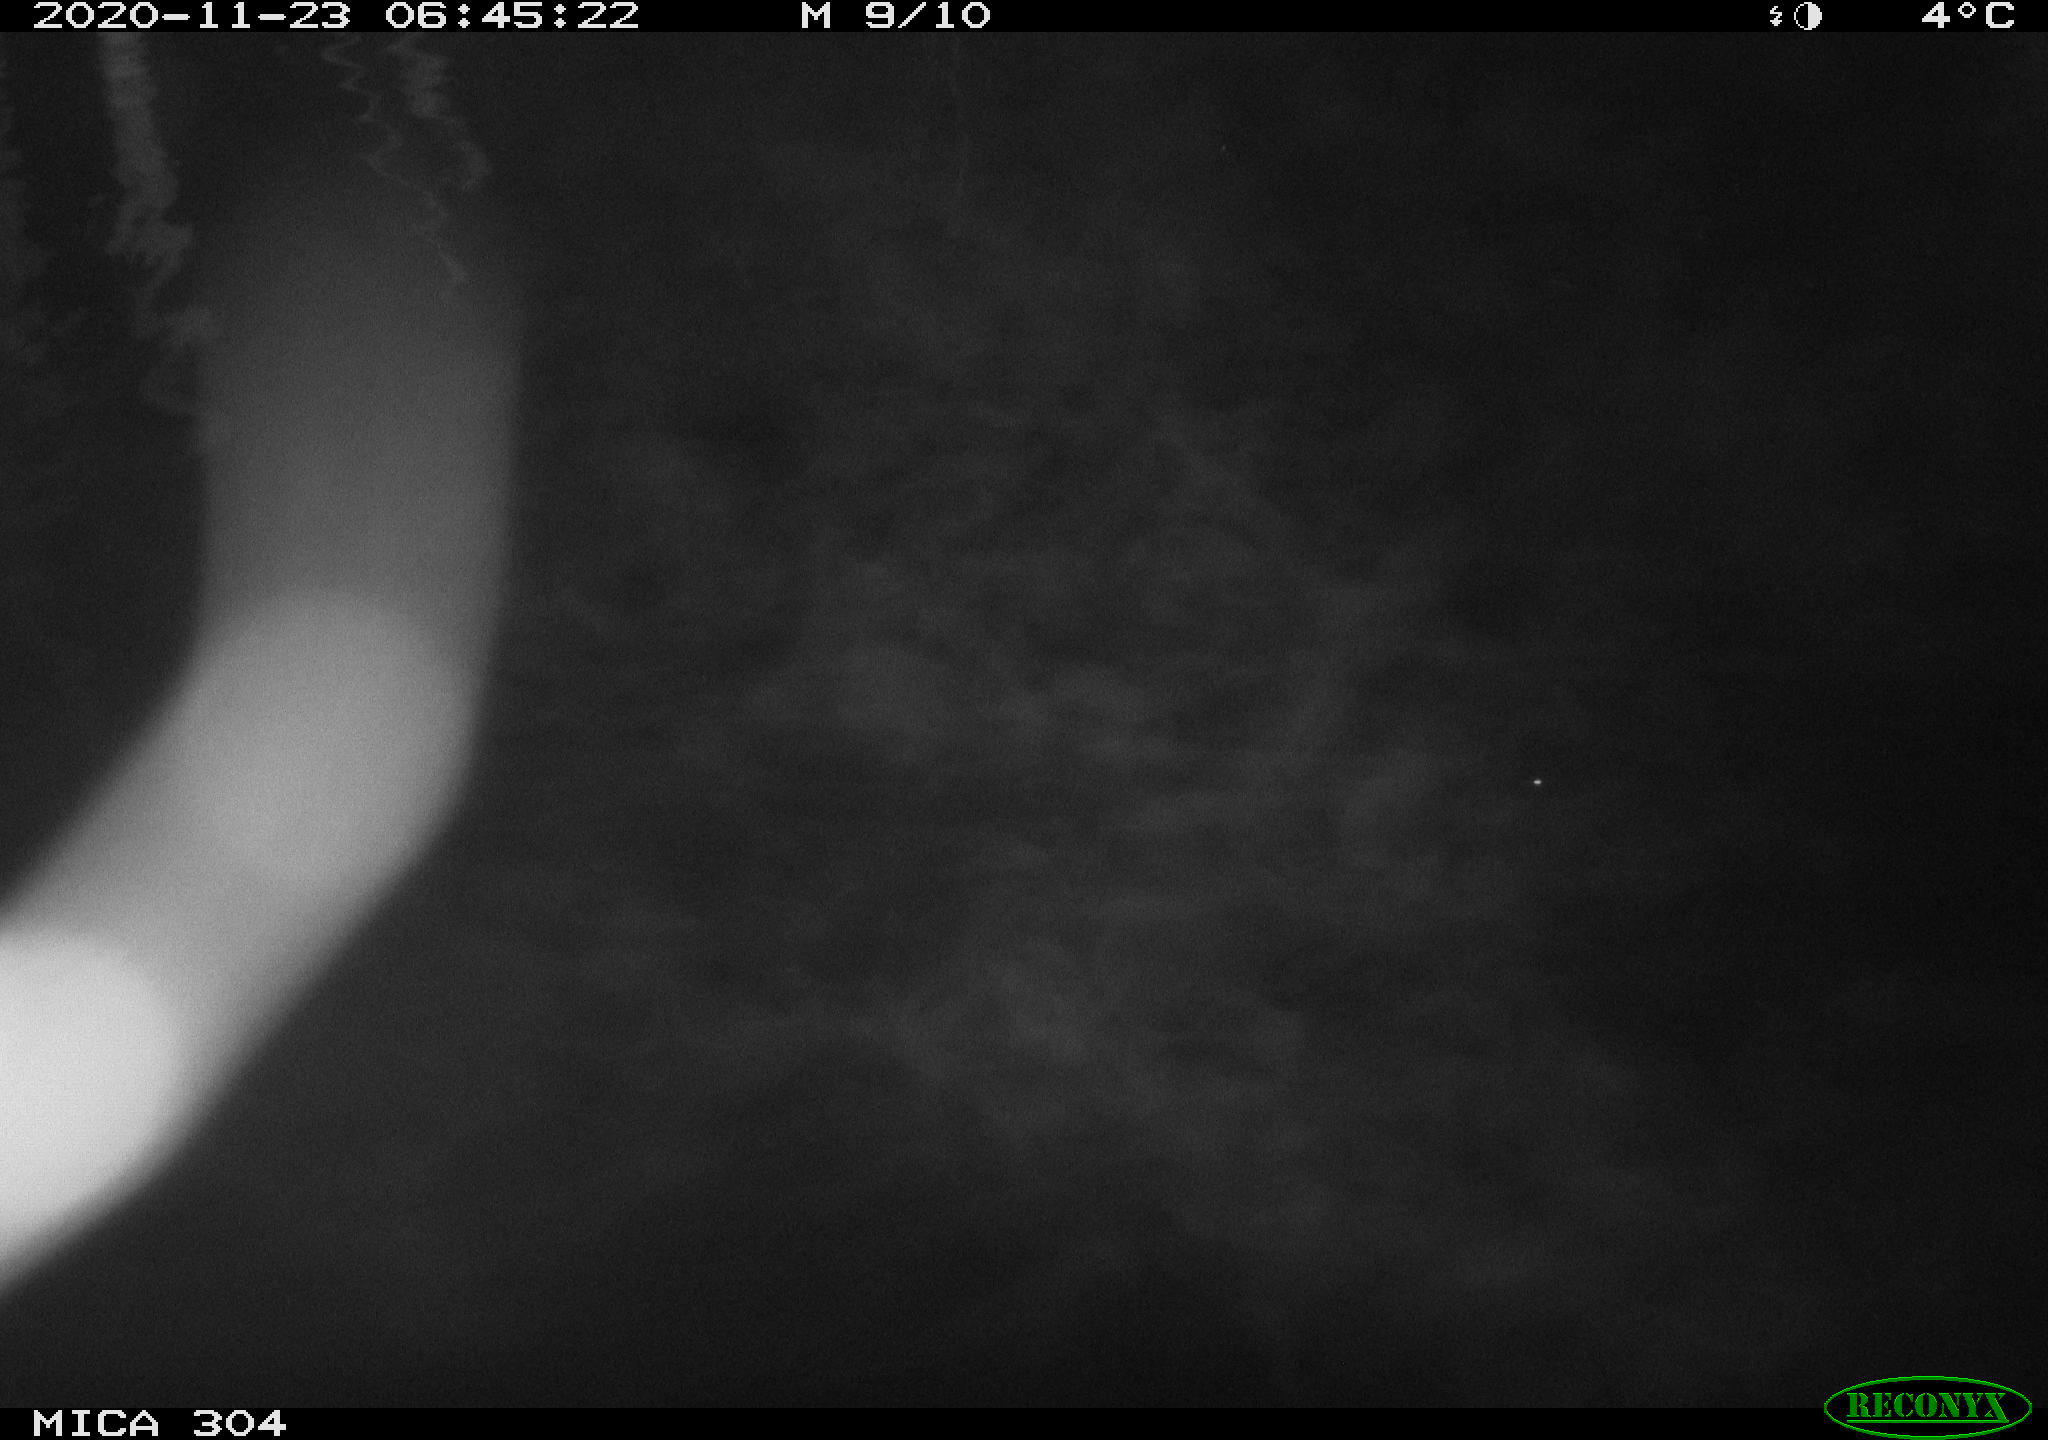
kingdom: Animalia
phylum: Chordata
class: Aves
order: Anseriformes
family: Anatidae
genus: Anas
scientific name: Anas platyrhynchos
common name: Mallard
